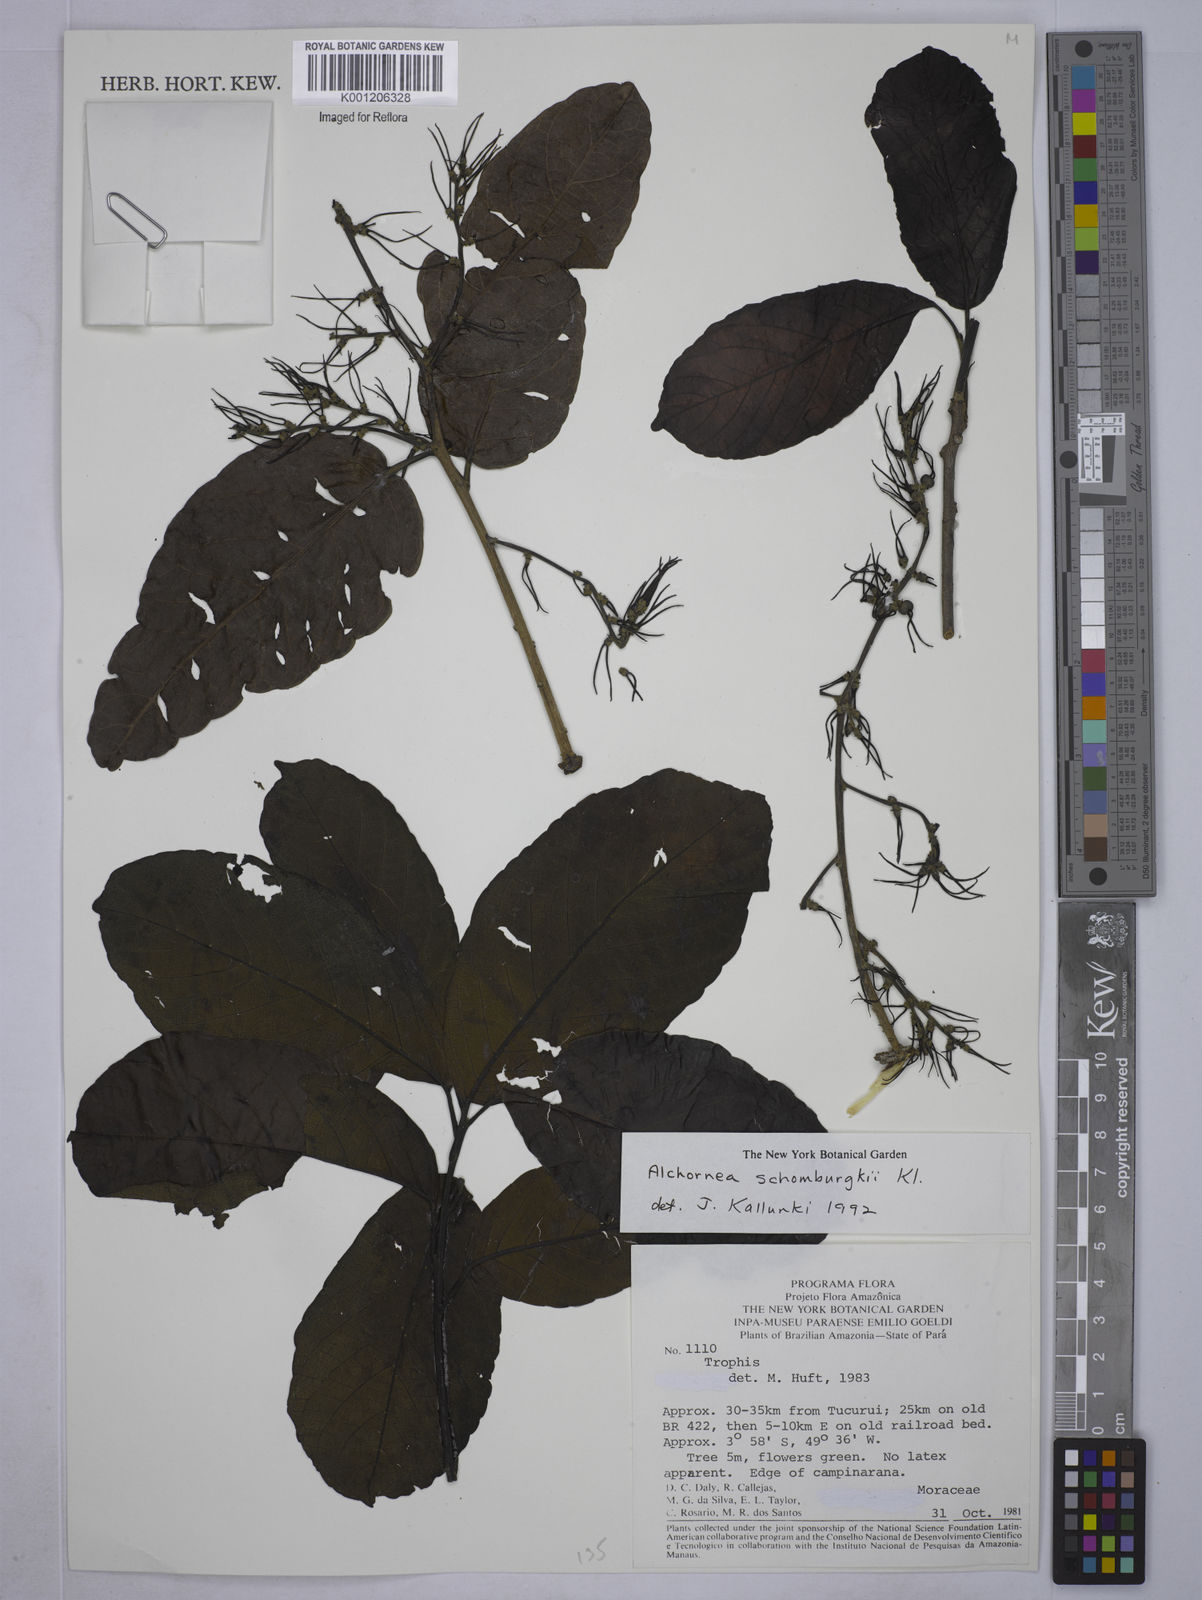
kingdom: Plantae
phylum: Tracheophyta
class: Magnoliopsida
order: Malpighiales
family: Euphorbiaceae
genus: Alchornea
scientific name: Alchornea discolor
